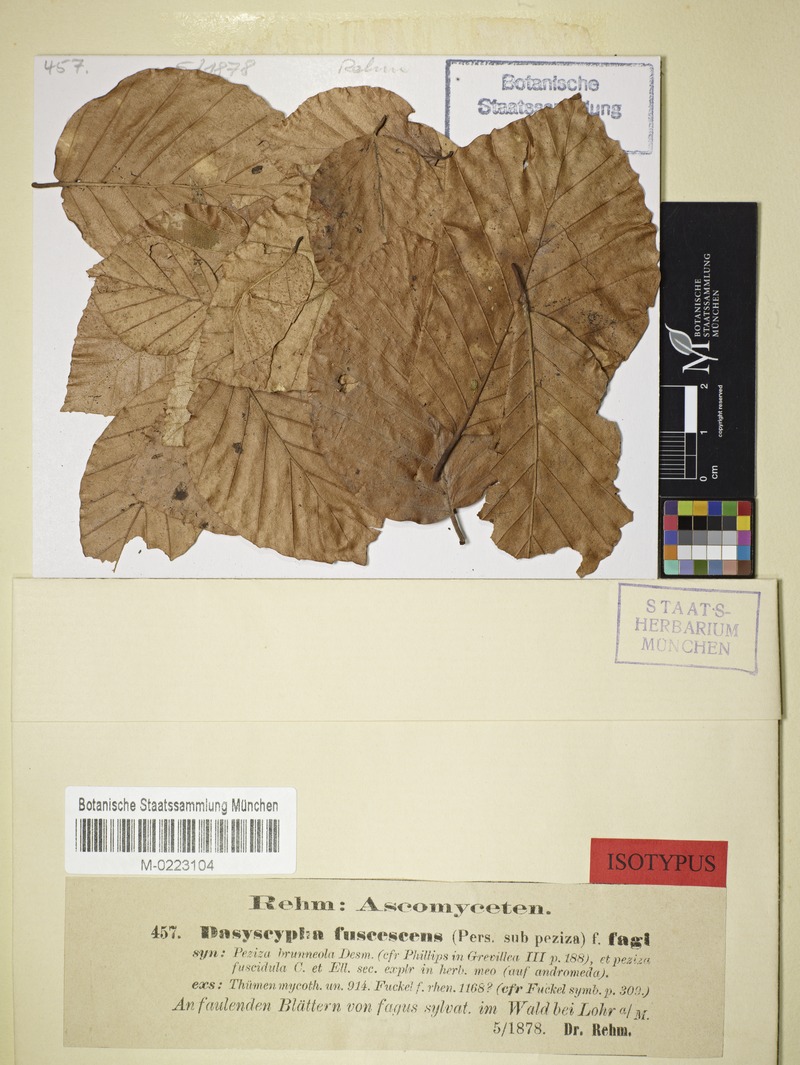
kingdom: Fungi
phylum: Ascomycota
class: Leotiomycetes
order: Helotiales
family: Lachnaceae
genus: Brunnipila
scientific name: Brunnipila fuscescens
